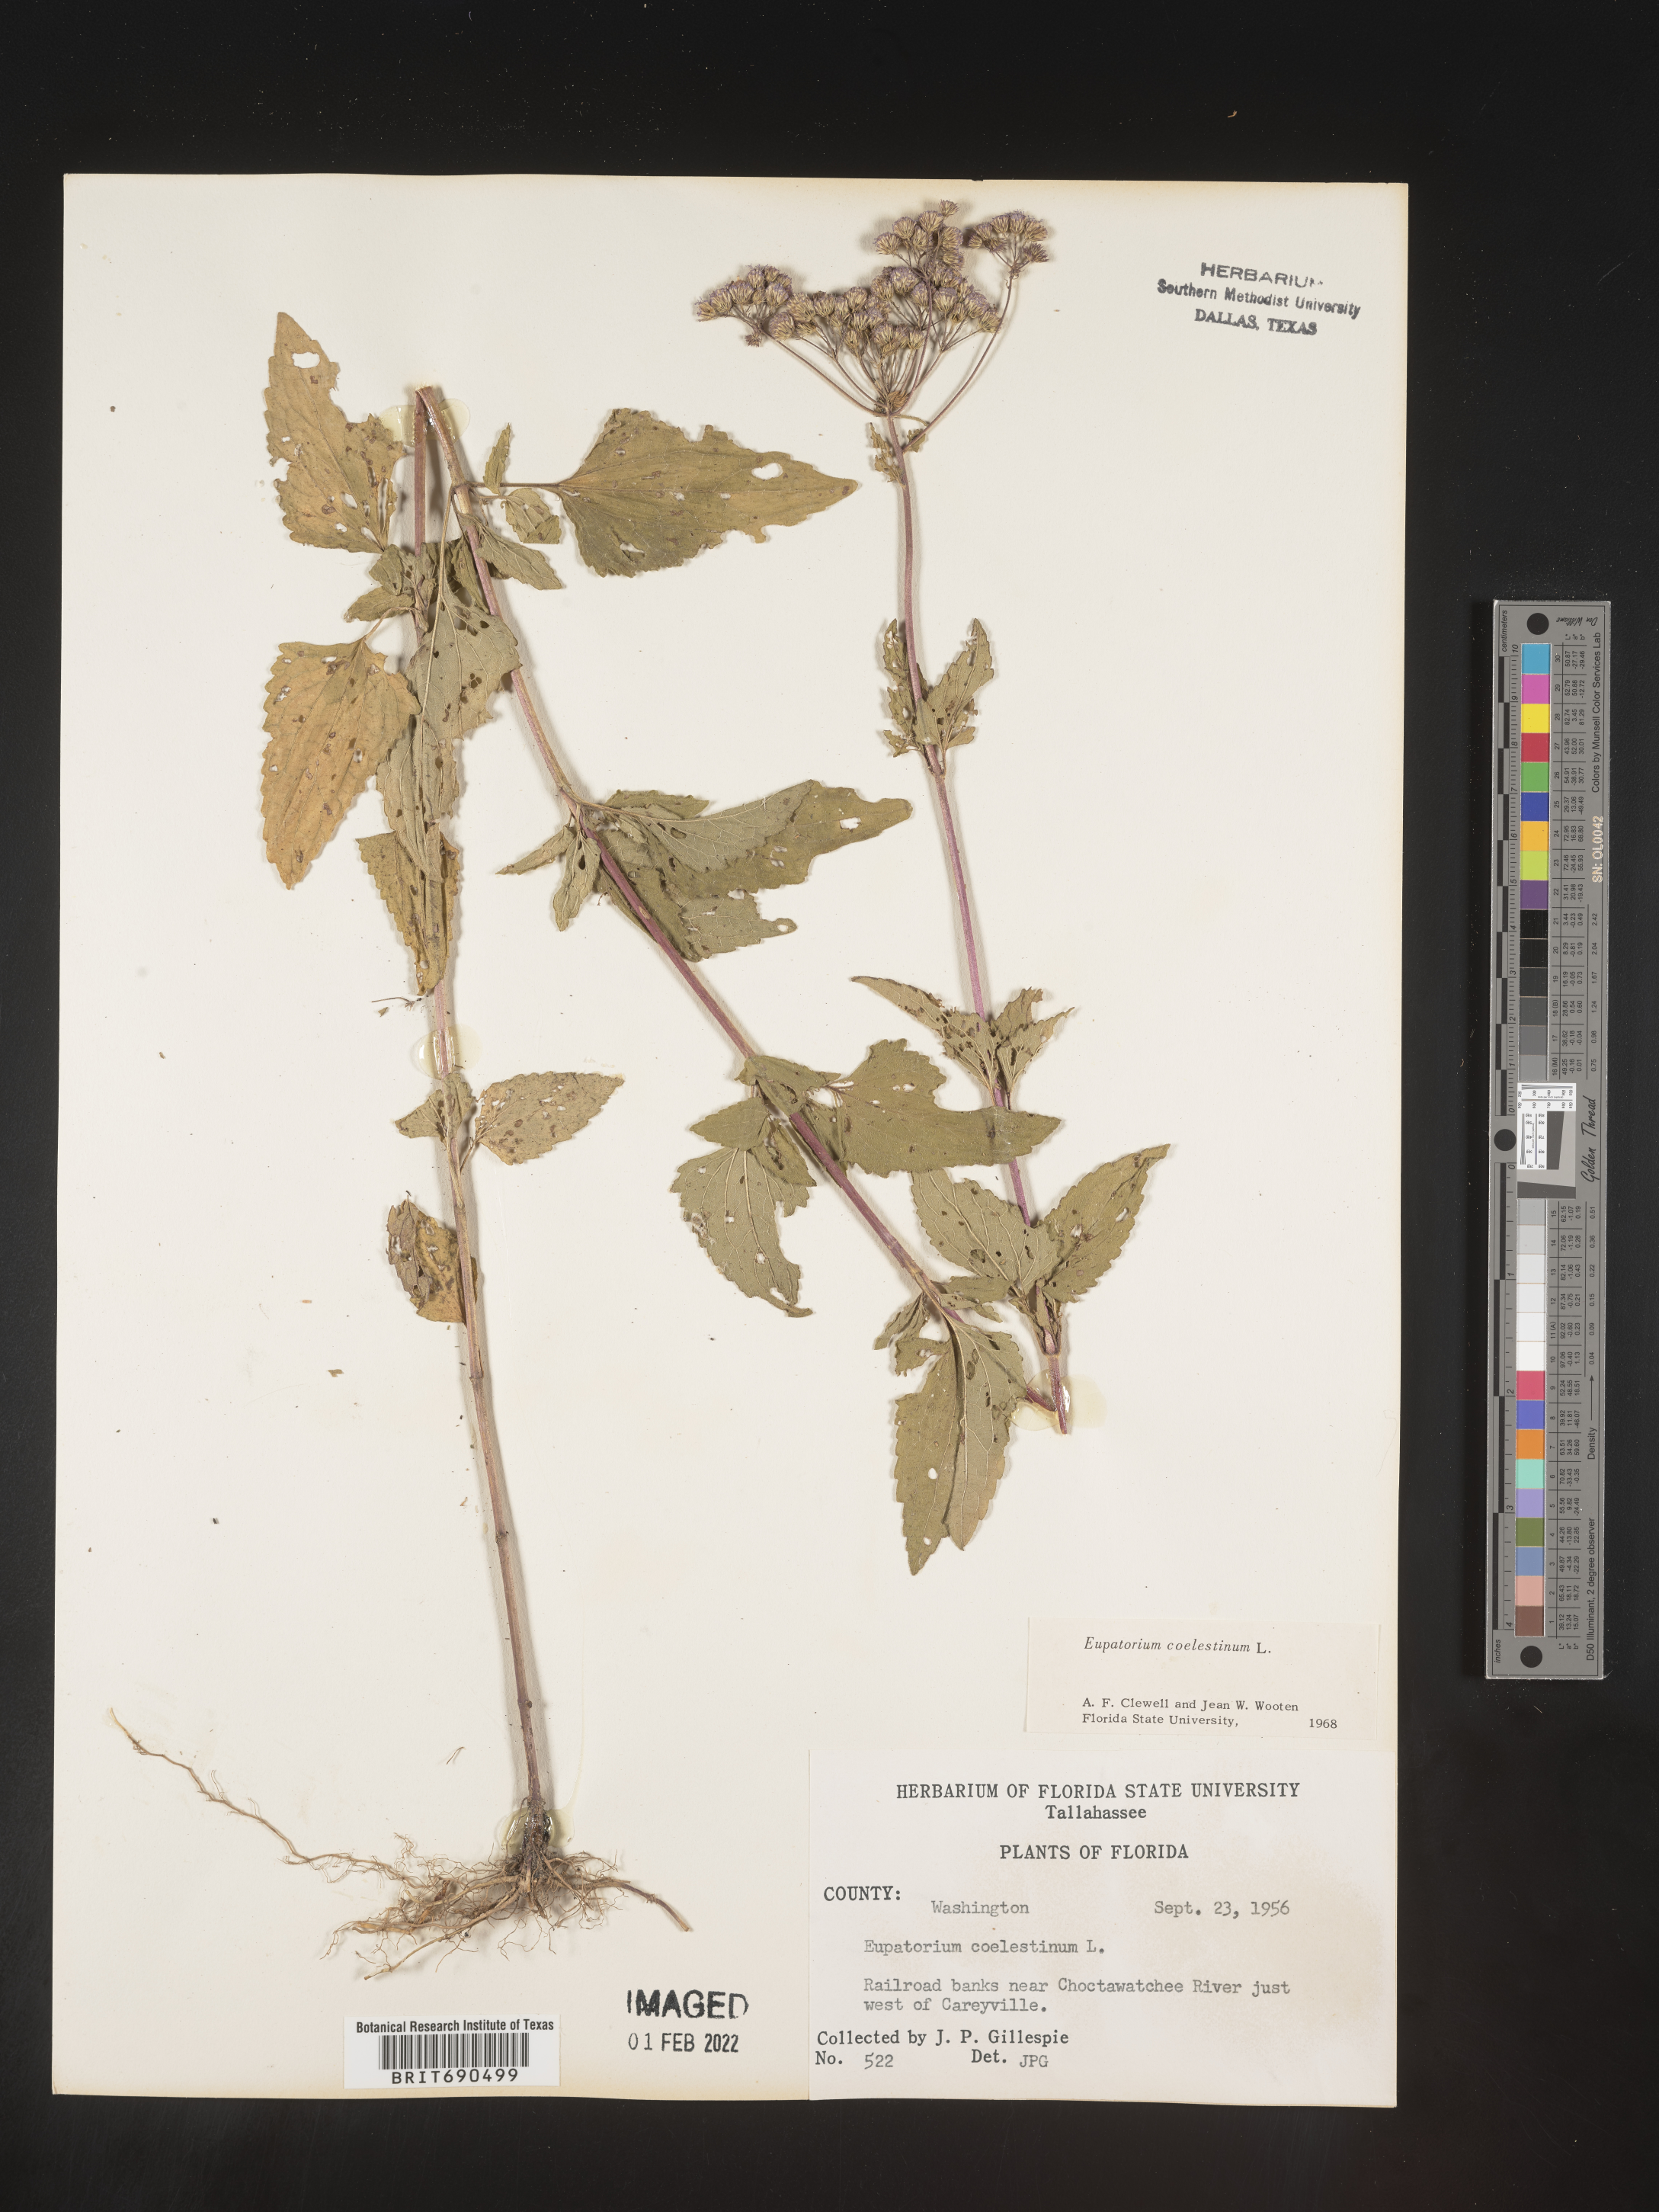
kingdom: Plantae
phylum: Tracheophyta
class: Magnoliopsida
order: Asterales
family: Asteraceae
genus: Conoclinium
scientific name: Conoclinium coelestinum
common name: Blue mistflower
